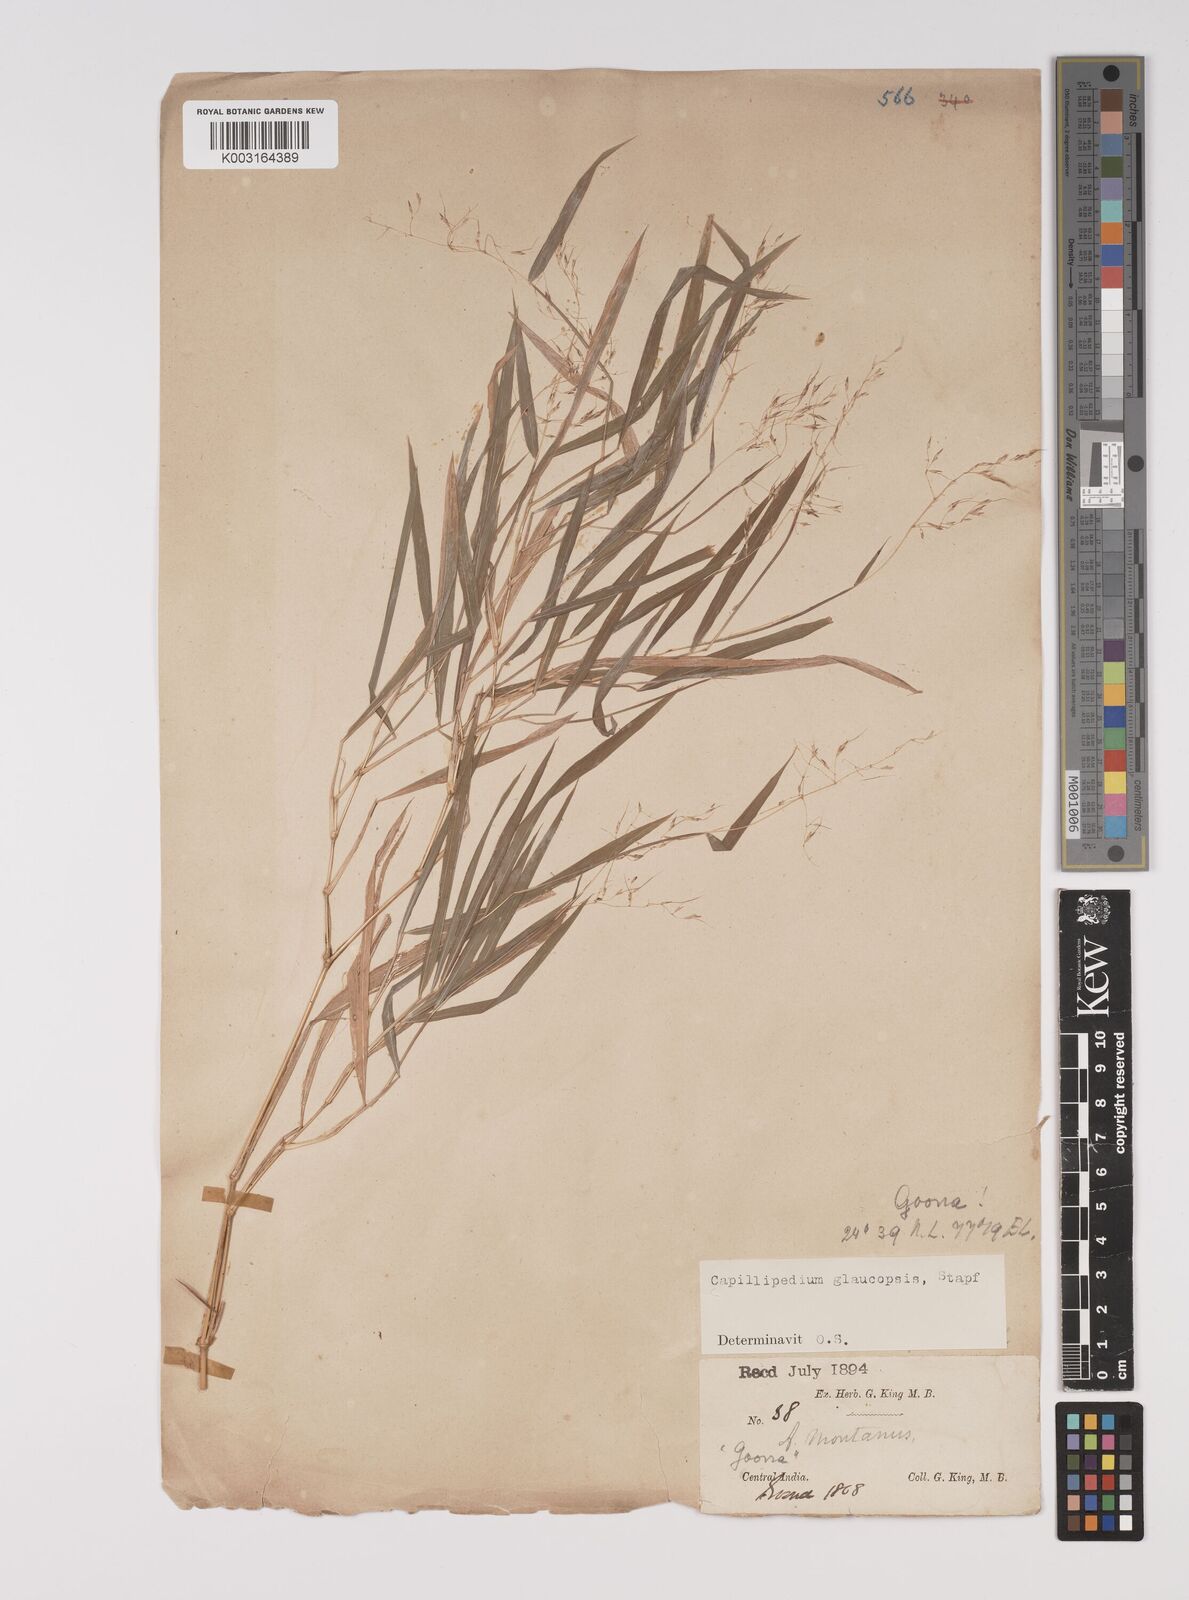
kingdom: Plantae
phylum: Tracheophyta
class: Liliopsida
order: Poales
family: Poaceae
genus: Capillipedium
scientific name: Capillipedium assimile
